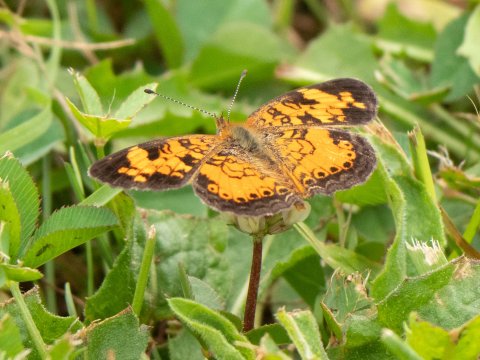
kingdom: Animalia
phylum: Arthropoda
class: Insecta
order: Lepidoptera
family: Nymphalidae
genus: Phyciodes
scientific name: Phyciodes
